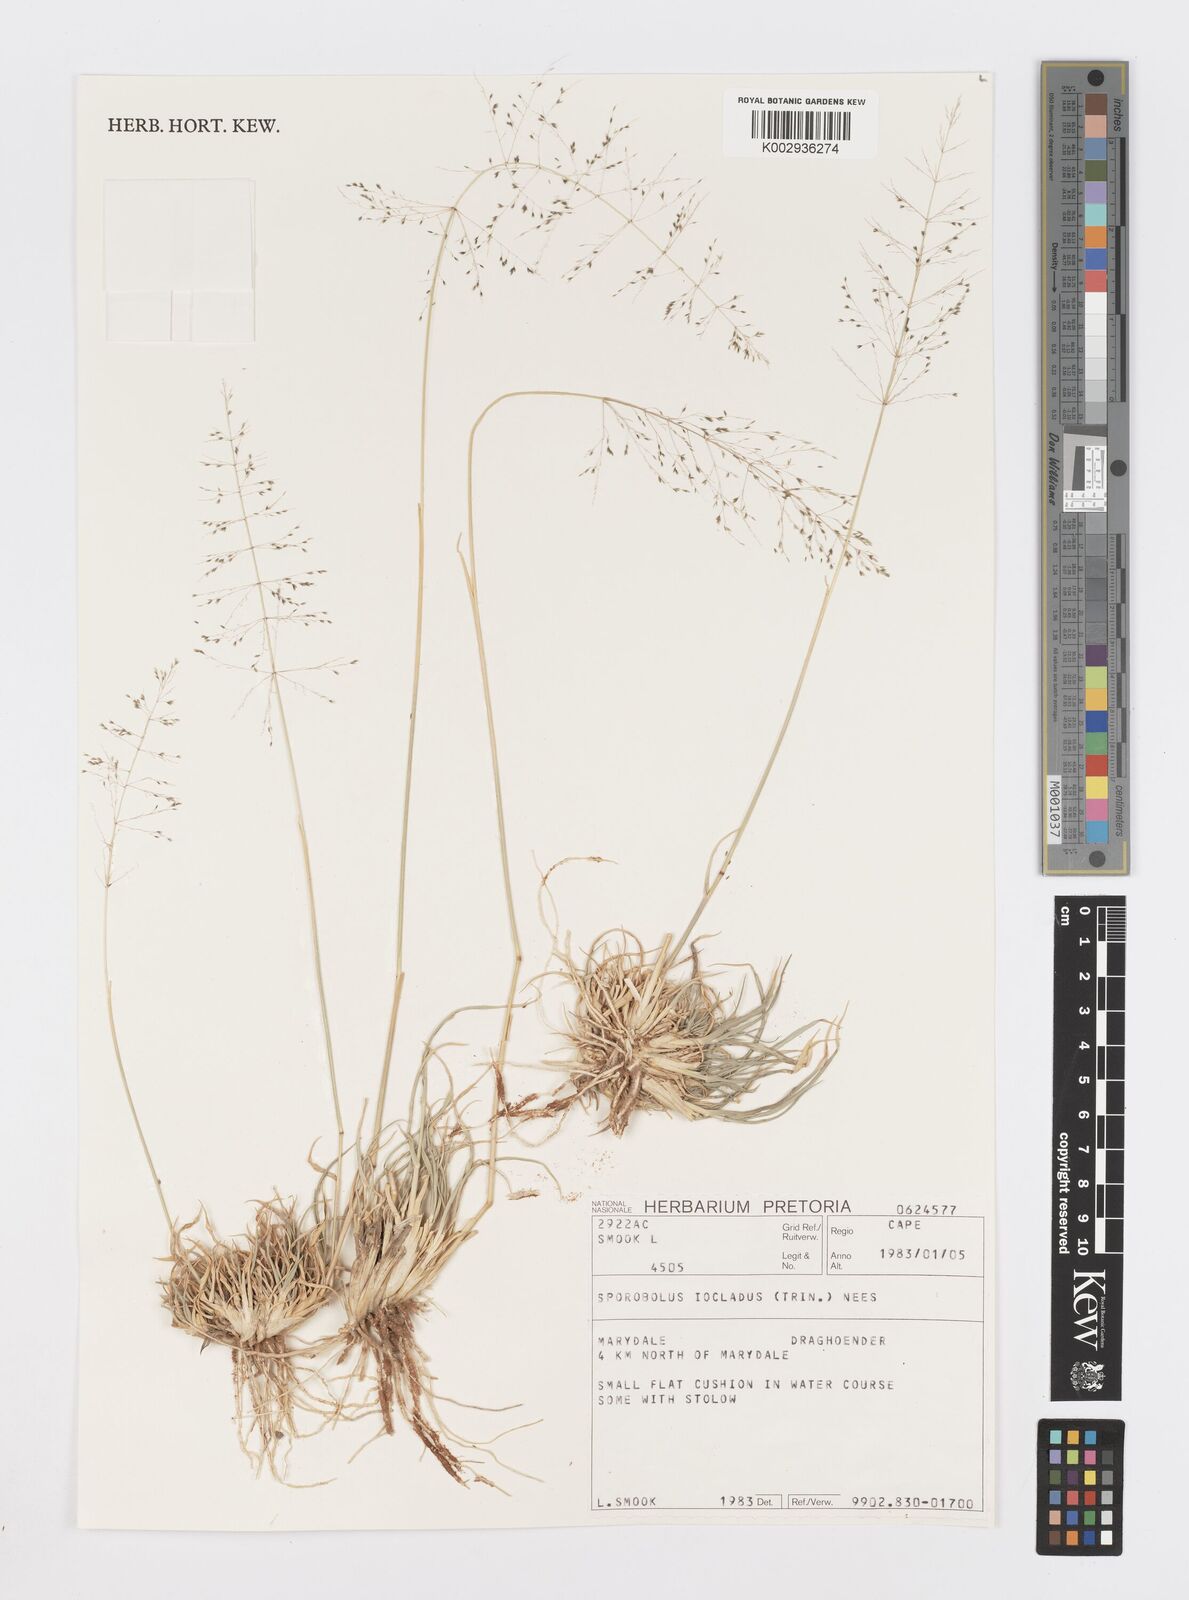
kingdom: Plantae
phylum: Tracheophyta
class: Liliopsida
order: Poales
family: Poaceae
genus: Sporobolus
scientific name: Sporobolus ioclados
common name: Pan dropseed
